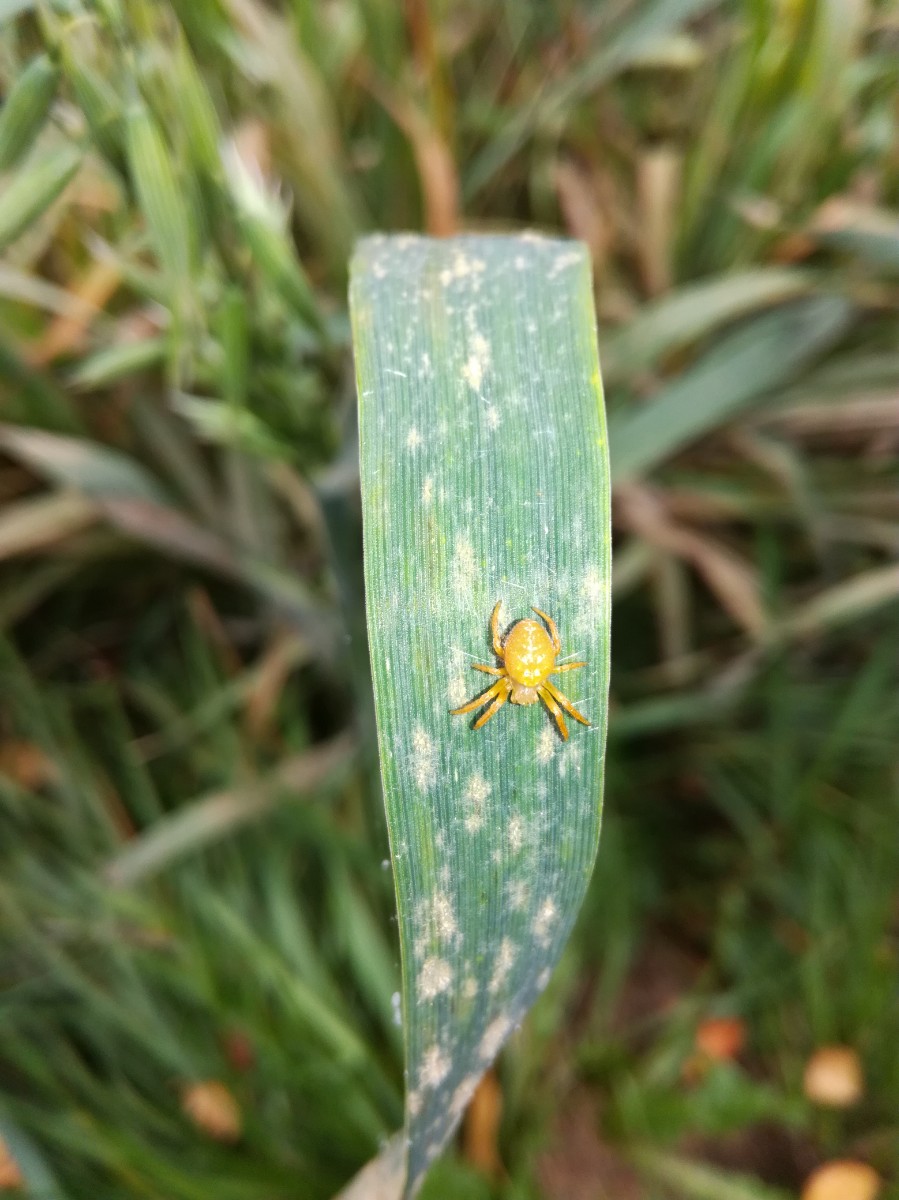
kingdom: Fungi
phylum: Basidiomycota
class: Pucciniomycetes
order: Pucciniales
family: Pucciniaceae
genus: Puccinia
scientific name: Puccinia
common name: tvecellerust
